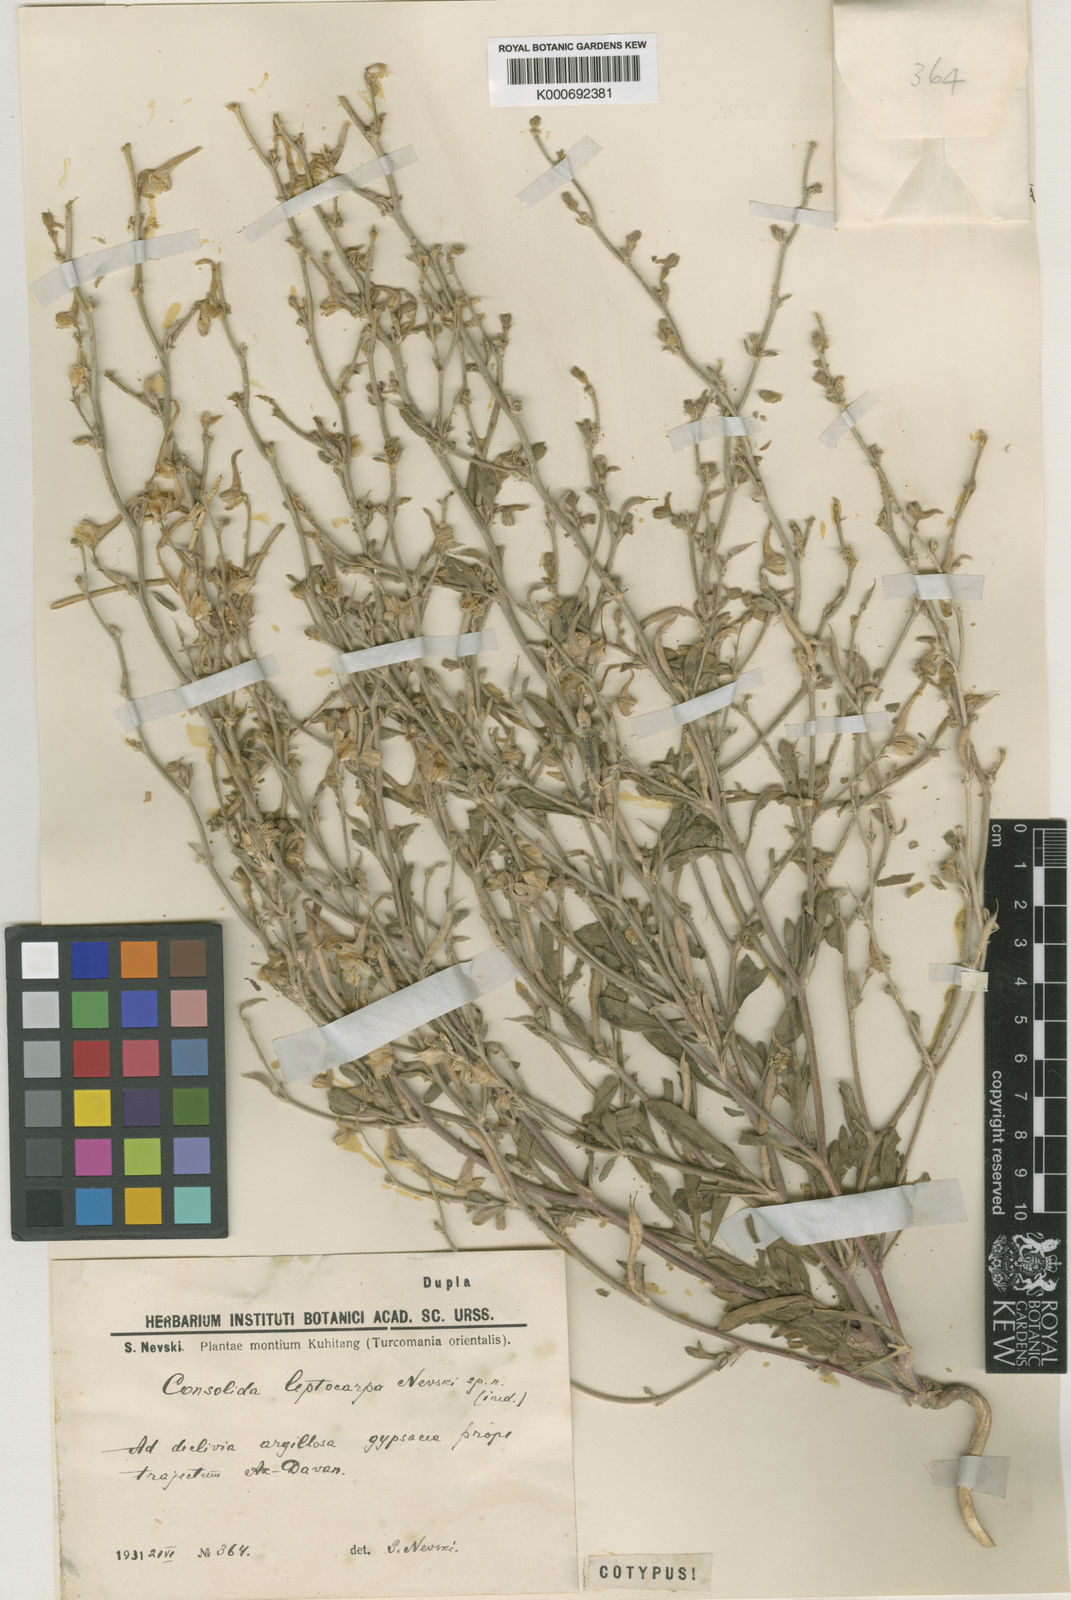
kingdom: Plantae
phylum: Tracheophyta
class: Magnoliopsida
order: Ranunculales
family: Ranunculaceae
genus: Delphinium
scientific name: Delphinium leptocarpum
